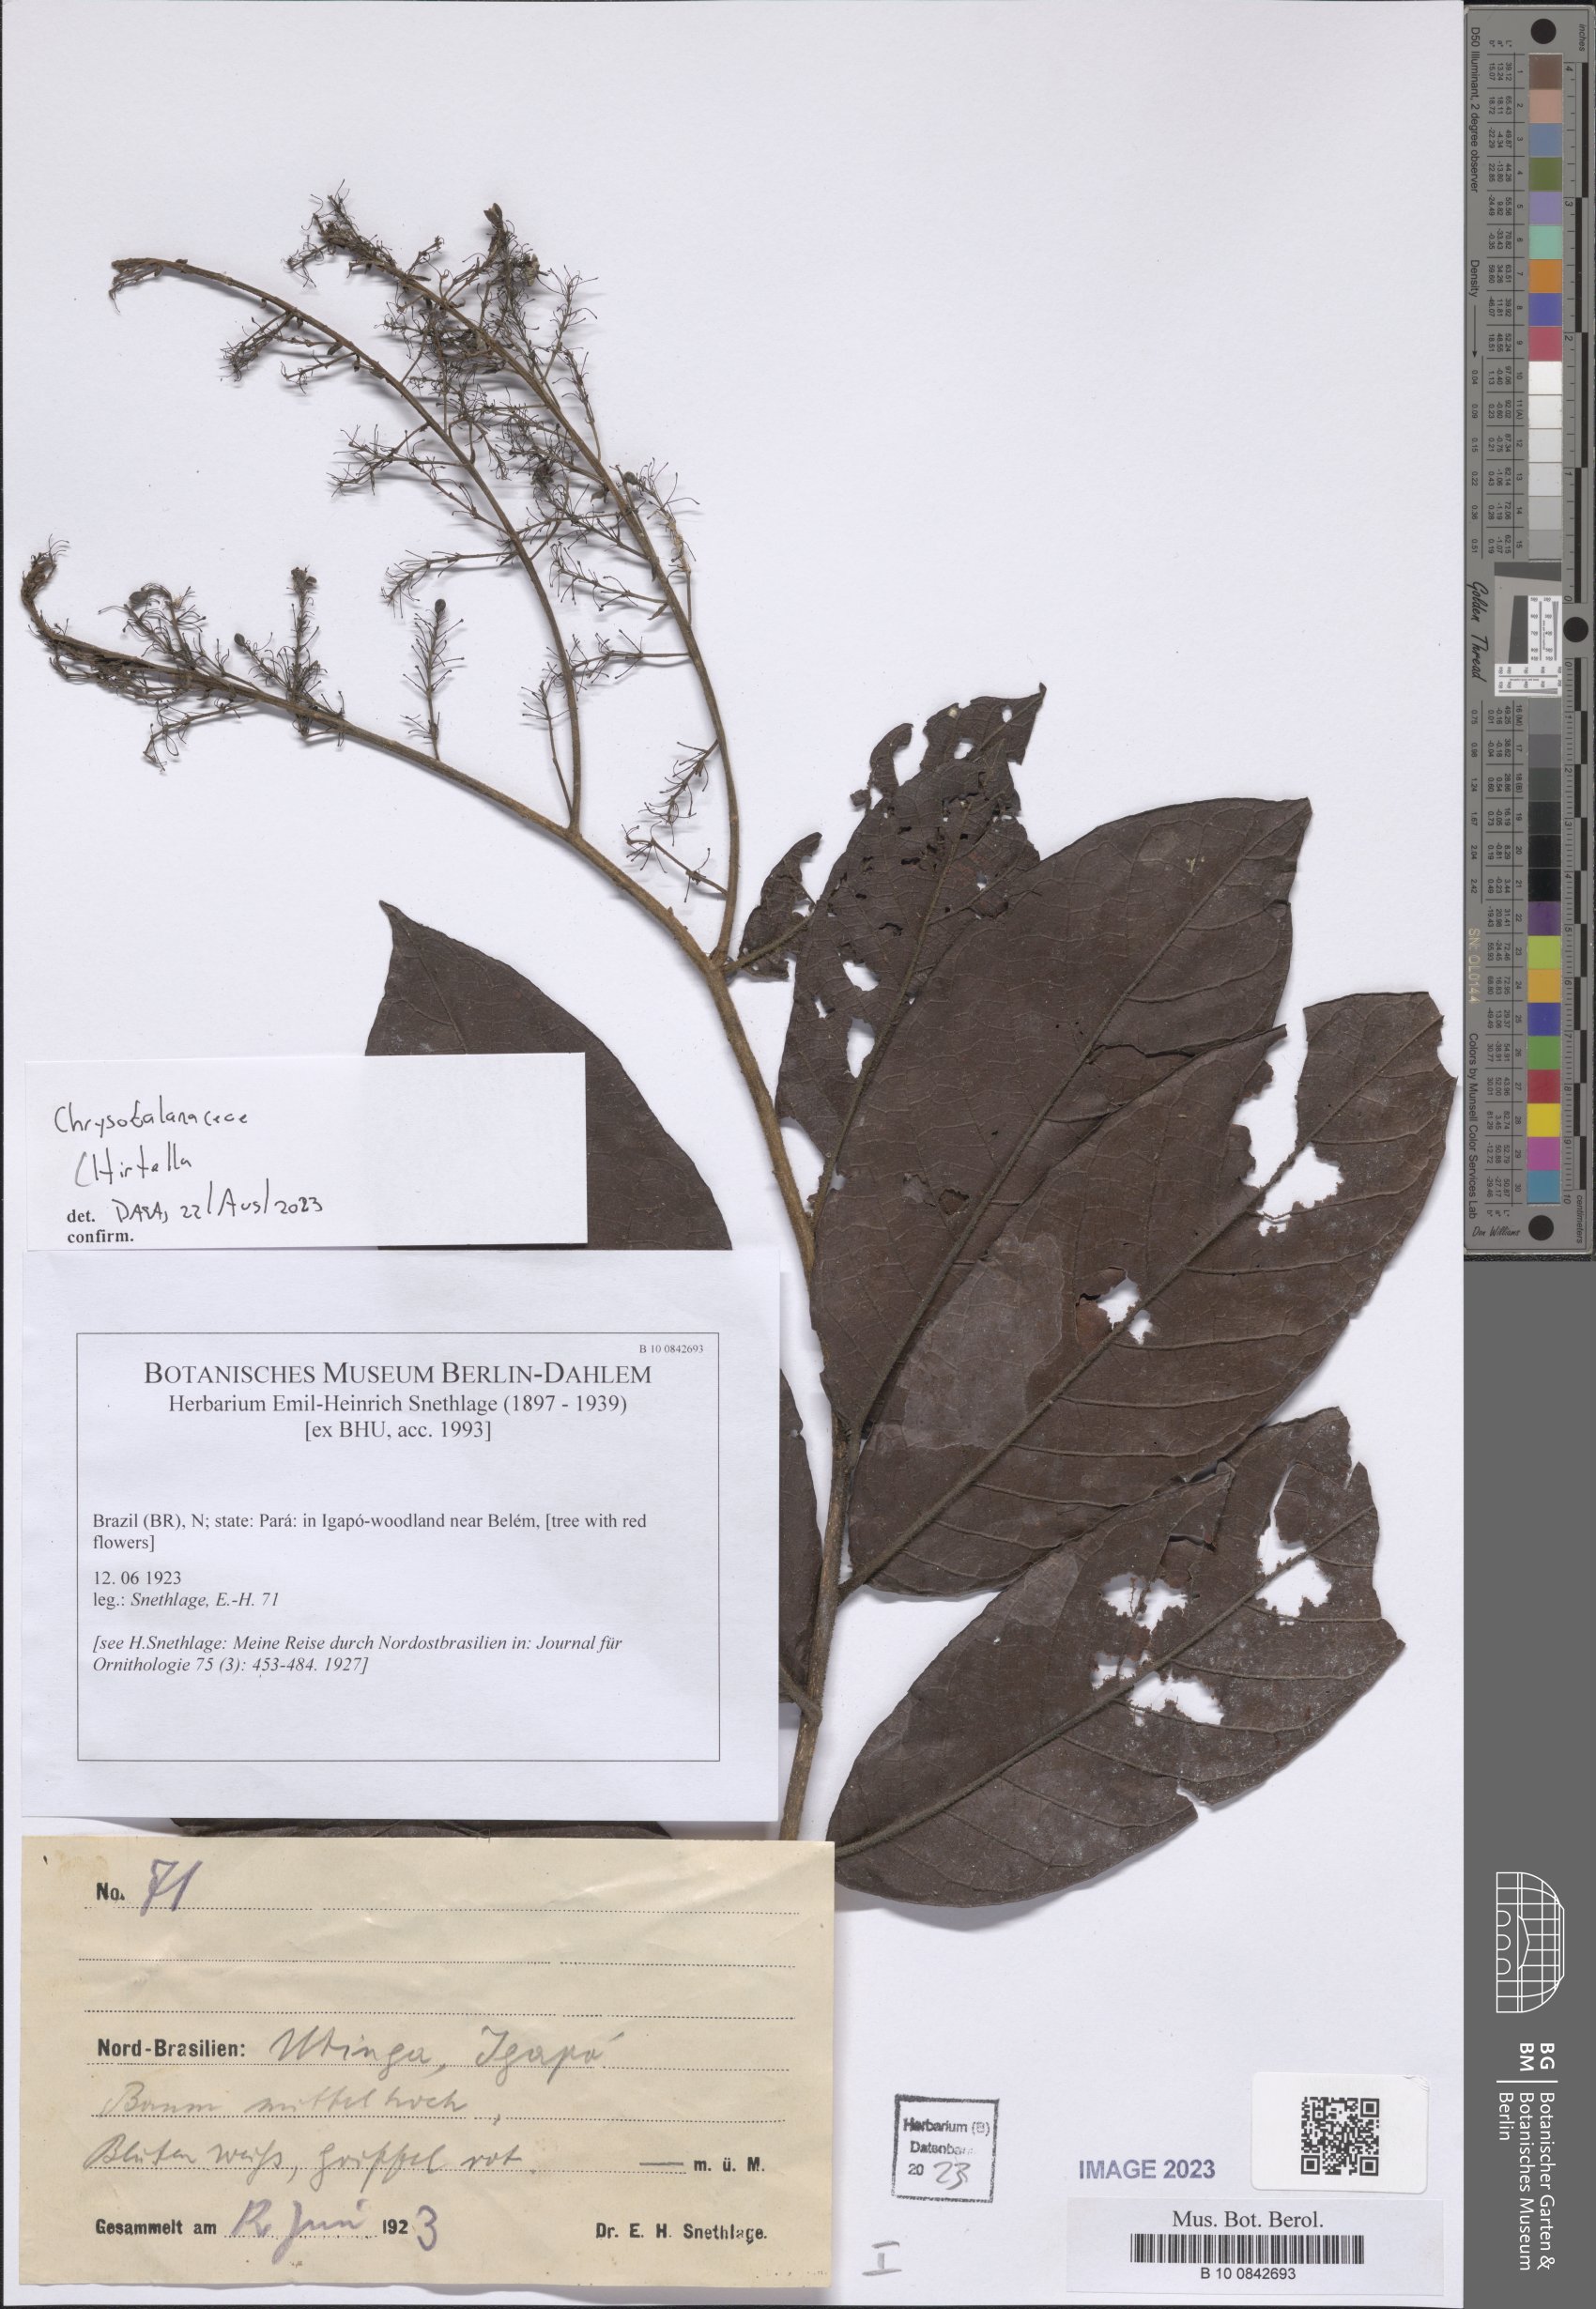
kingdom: Plantae
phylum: Tracheophyta
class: Magnoliopsida
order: Malpighiales
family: Chrysobalanaceae
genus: Hirtella
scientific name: Hirtella
